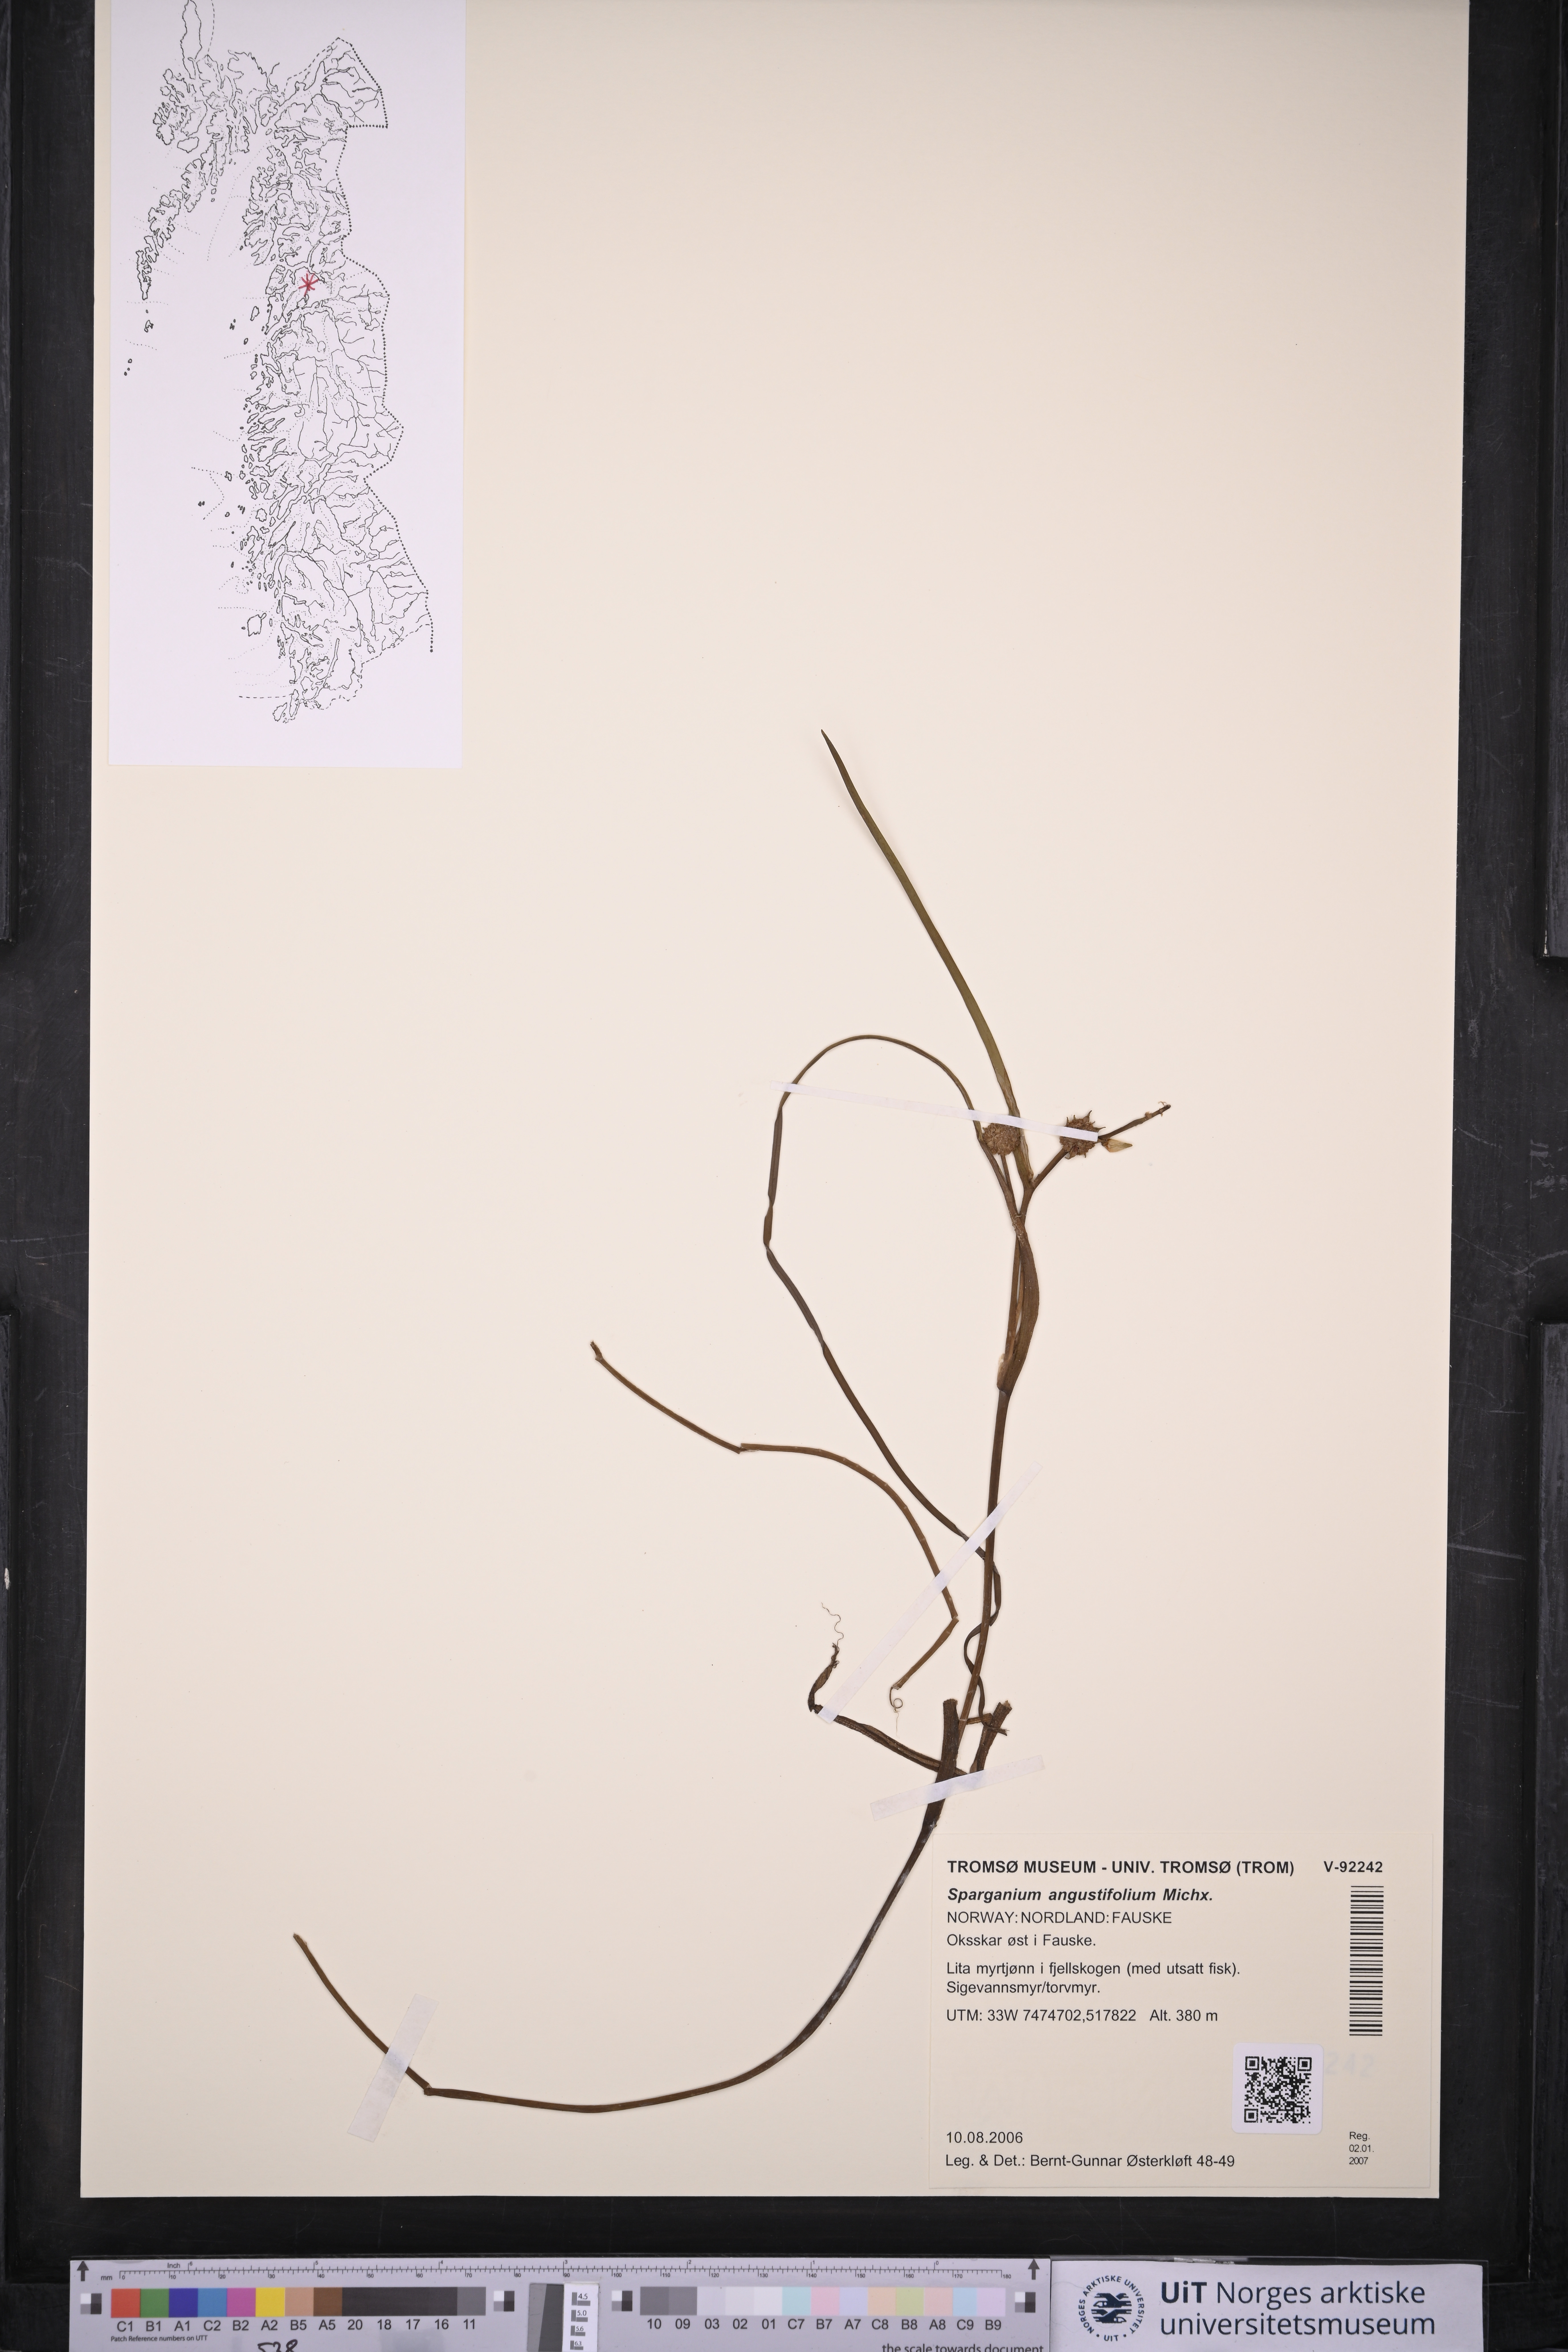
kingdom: Plantae
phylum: Tracheophyta
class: Liliopsida
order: Poales
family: Typhaceae
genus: Sparganium
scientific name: Sparganium angustifolium
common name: Floating bur-reed
